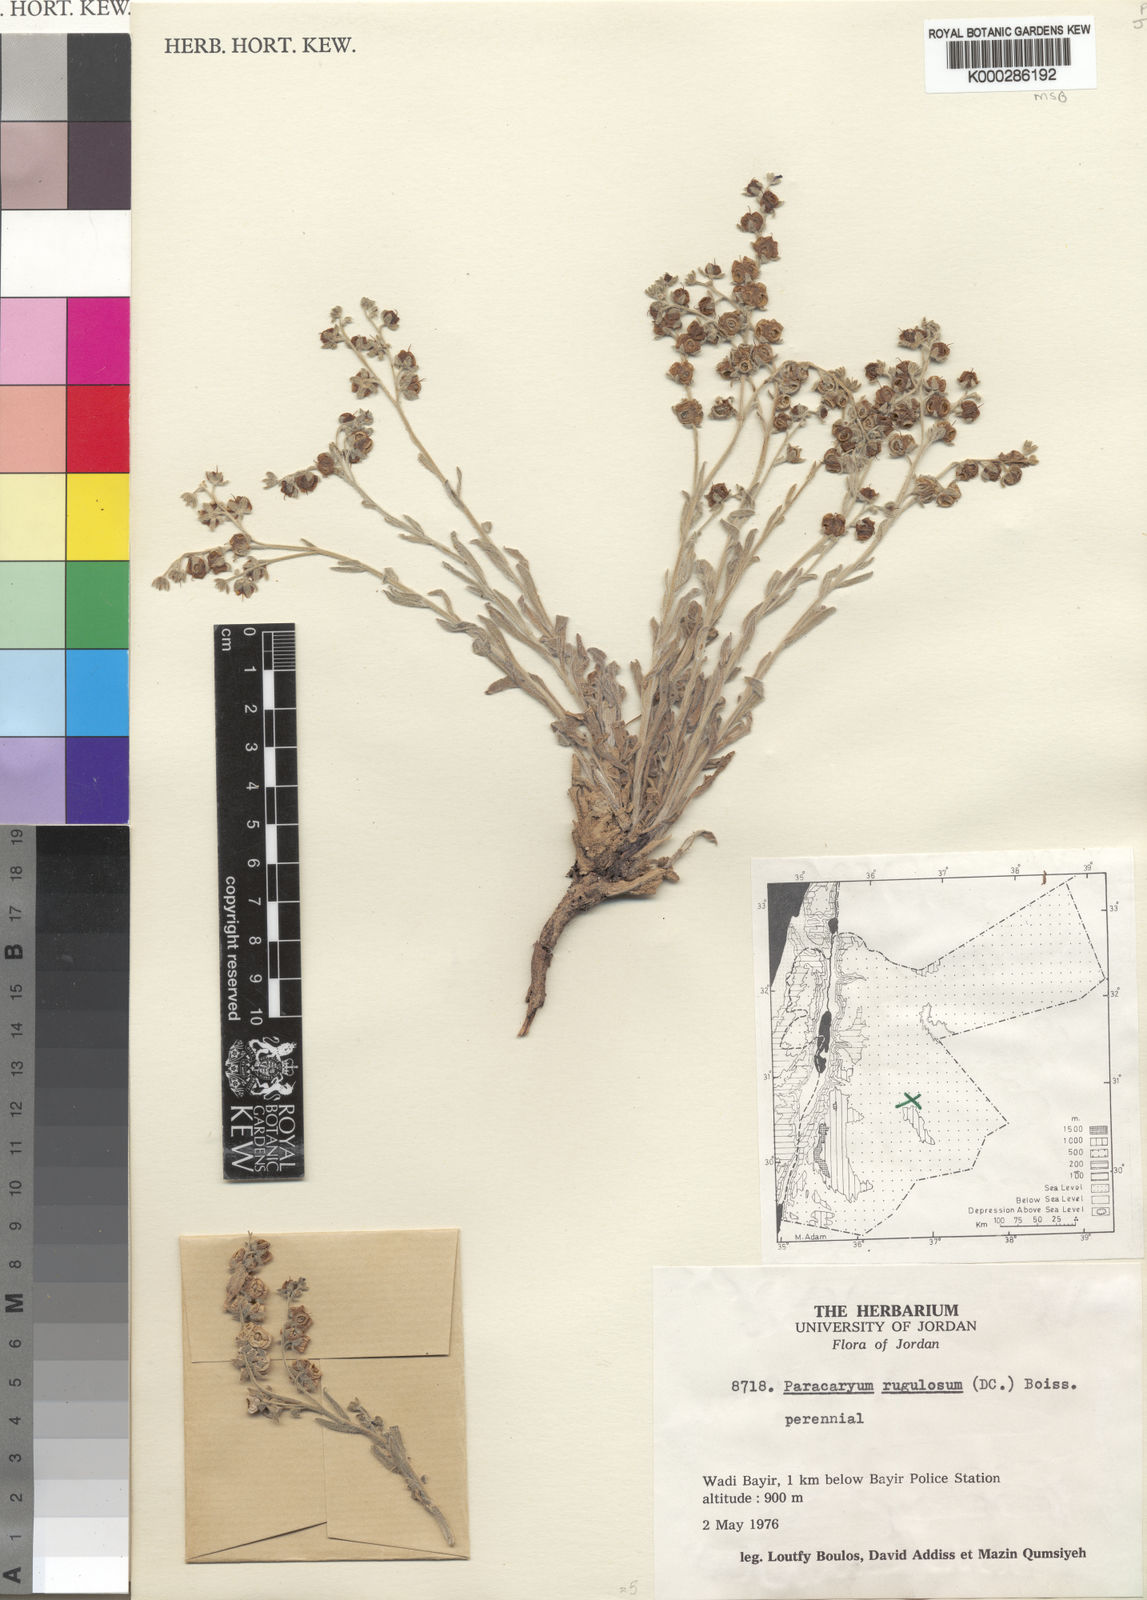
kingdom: Plantae
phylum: Tracheophyta
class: Magnoliopsida
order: Boraginales
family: Boraginaceae
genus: Paracaryum
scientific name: Paracaryum rugulosum
